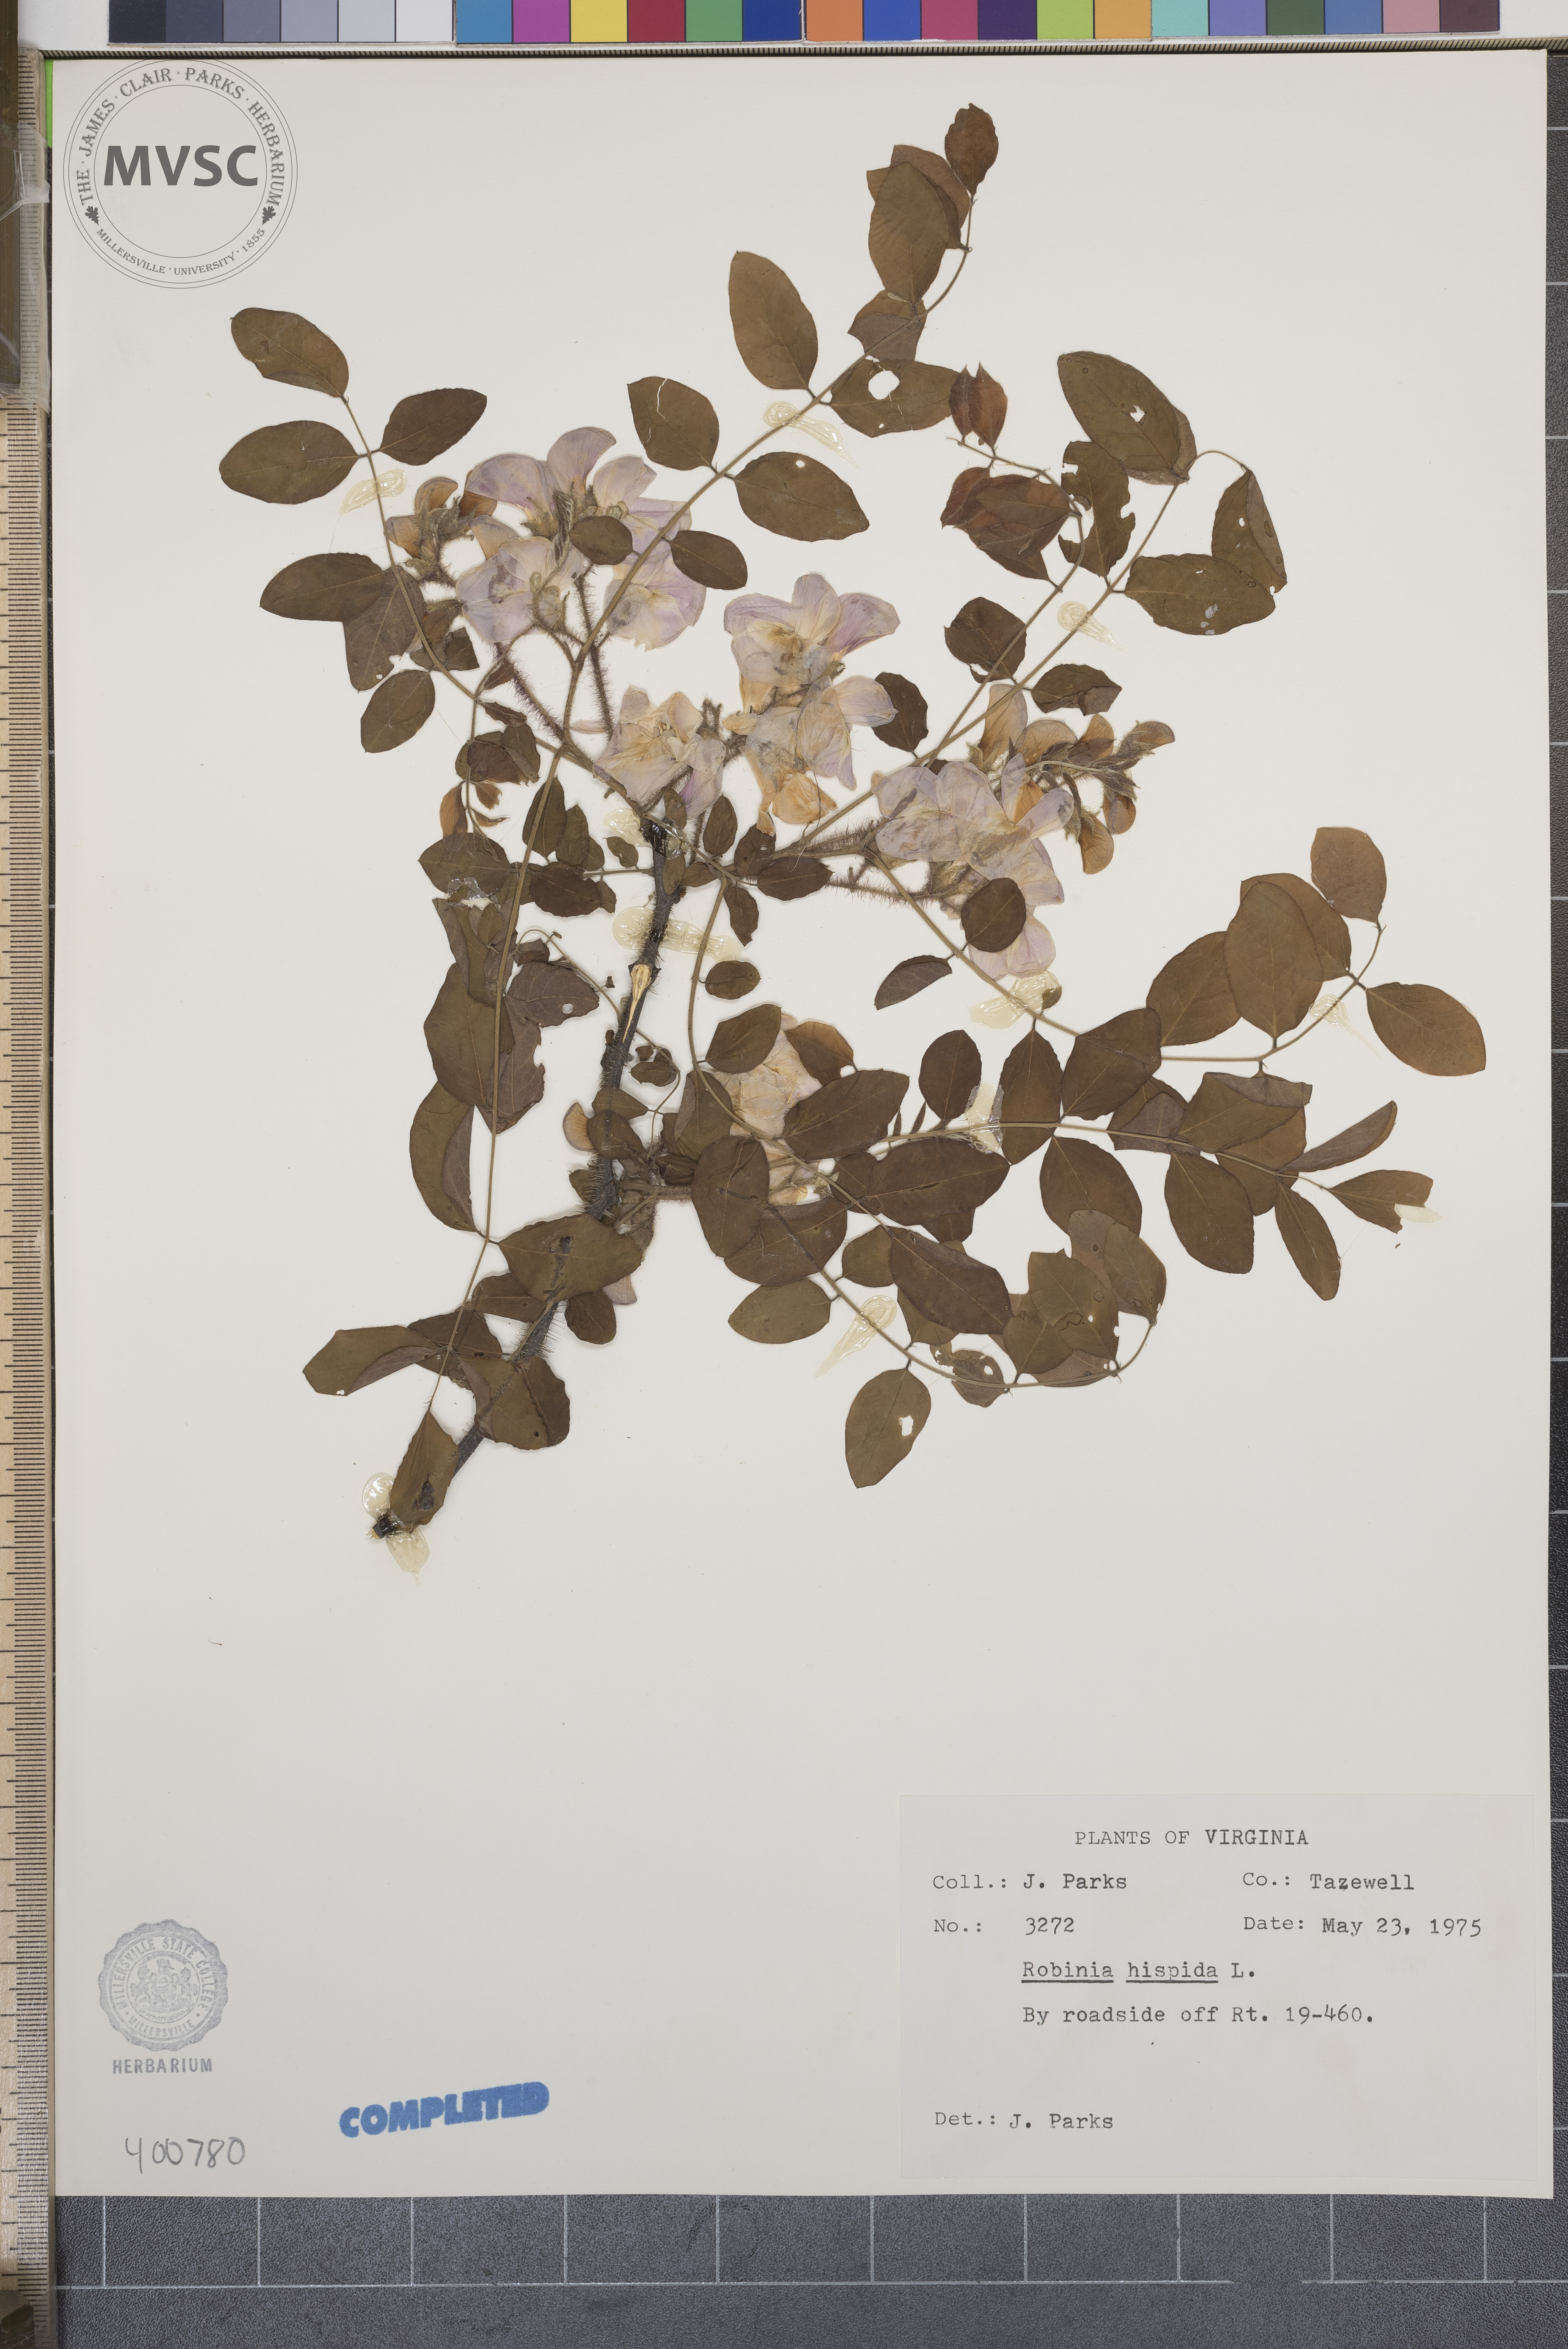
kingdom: Plantae
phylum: Tracheophyta
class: Magnoliopsida
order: Fabales
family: Fabaceae
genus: Robinia
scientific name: Robinia hispida
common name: black locust
